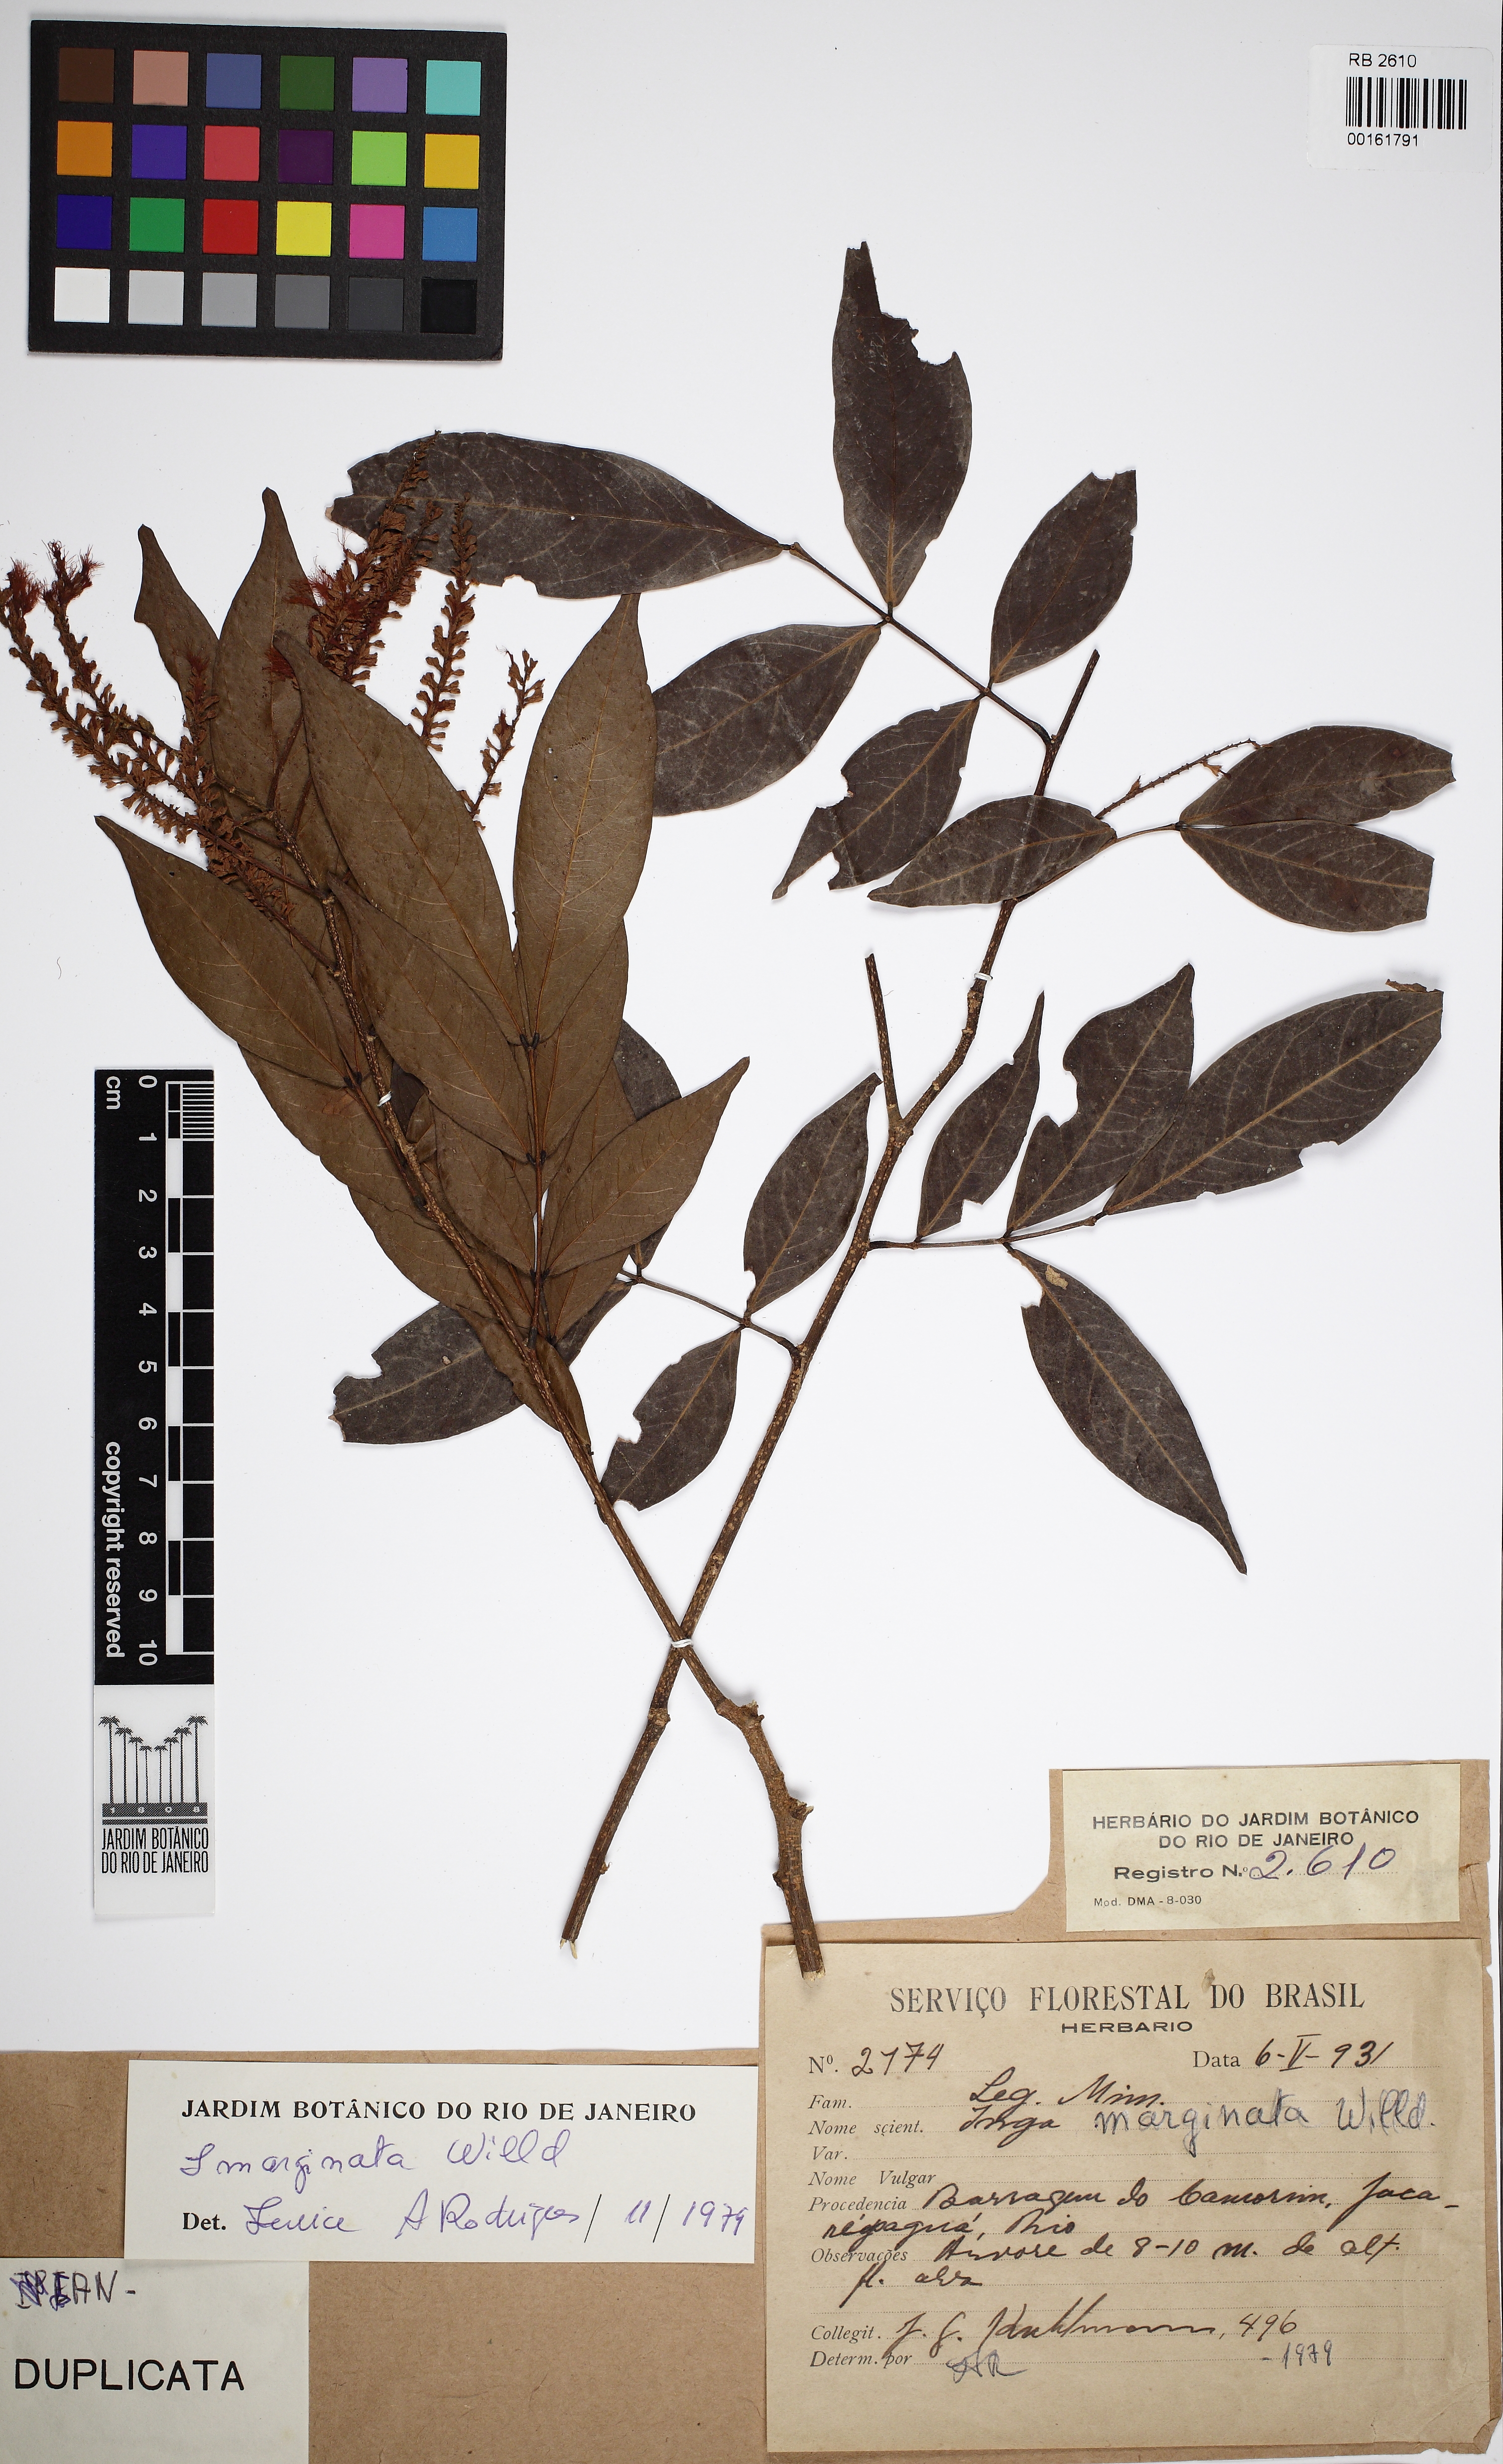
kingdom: Plantae
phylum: Tracheophyta
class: Magnoliopsida
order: Fabales
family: Fabaceae
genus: Inga
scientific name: Inga marginata
